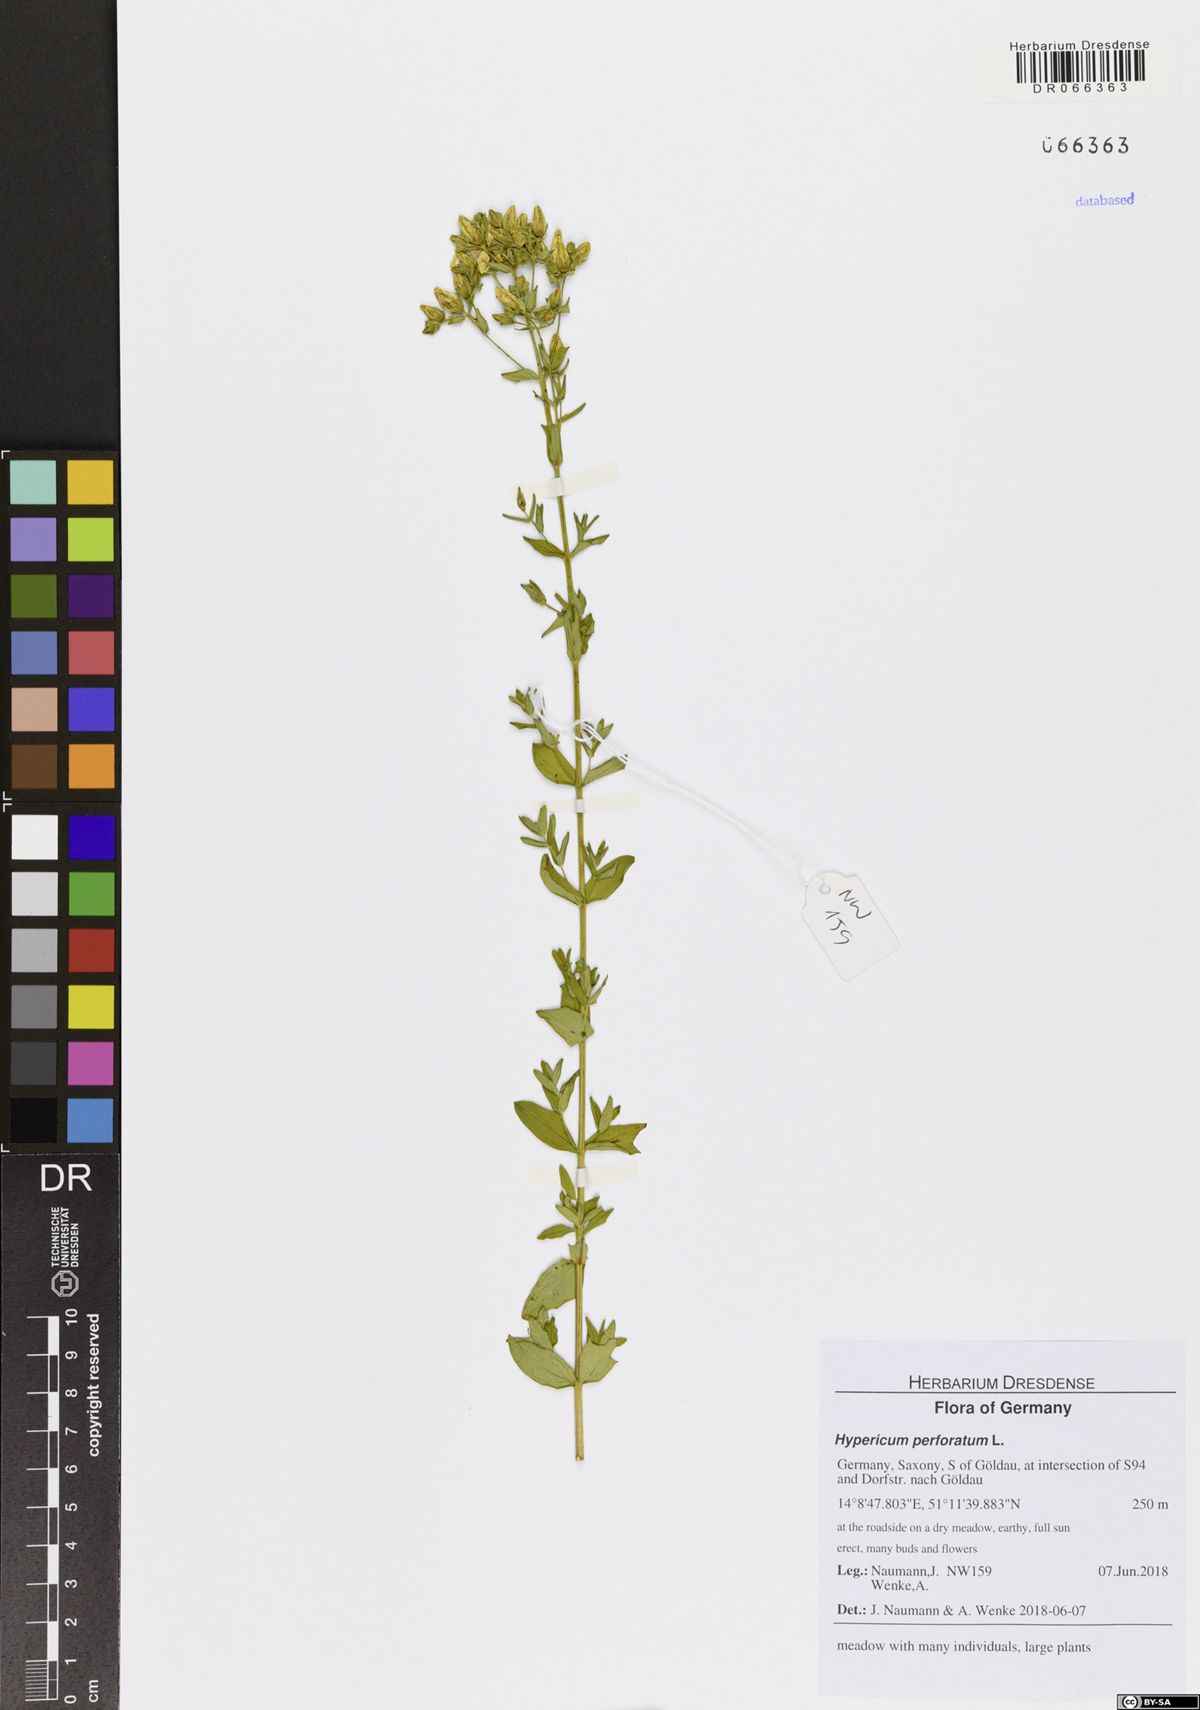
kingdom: Plantae
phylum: Tracheophyta
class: Magnoliopsida
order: Malpighiales
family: Hypericaceae
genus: Hypericum
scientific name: Hypericum perforatum
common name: Common st. johnswort
